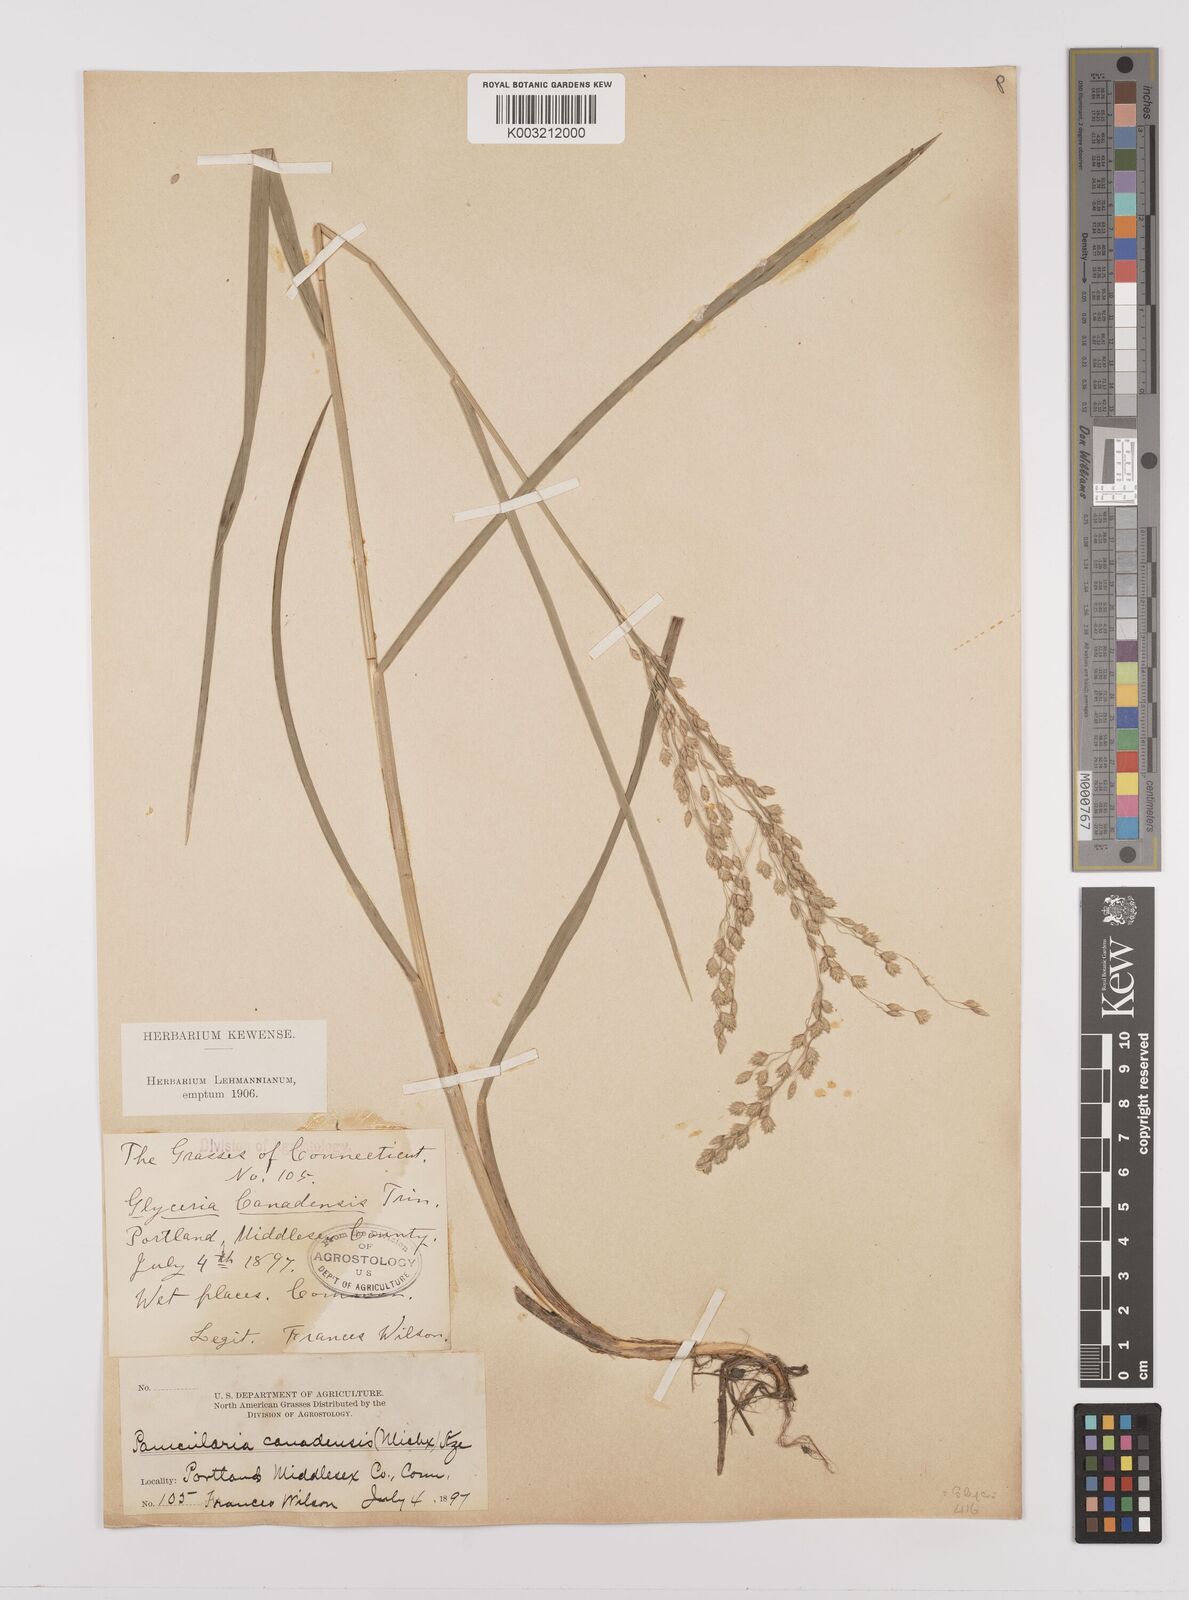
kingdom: Plantae
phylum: Tracheophyta
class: Liliopsida
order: Poales
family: Poaceae
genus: Glyceria
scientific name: Glyceria canadensis
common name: Canada mannagrass
